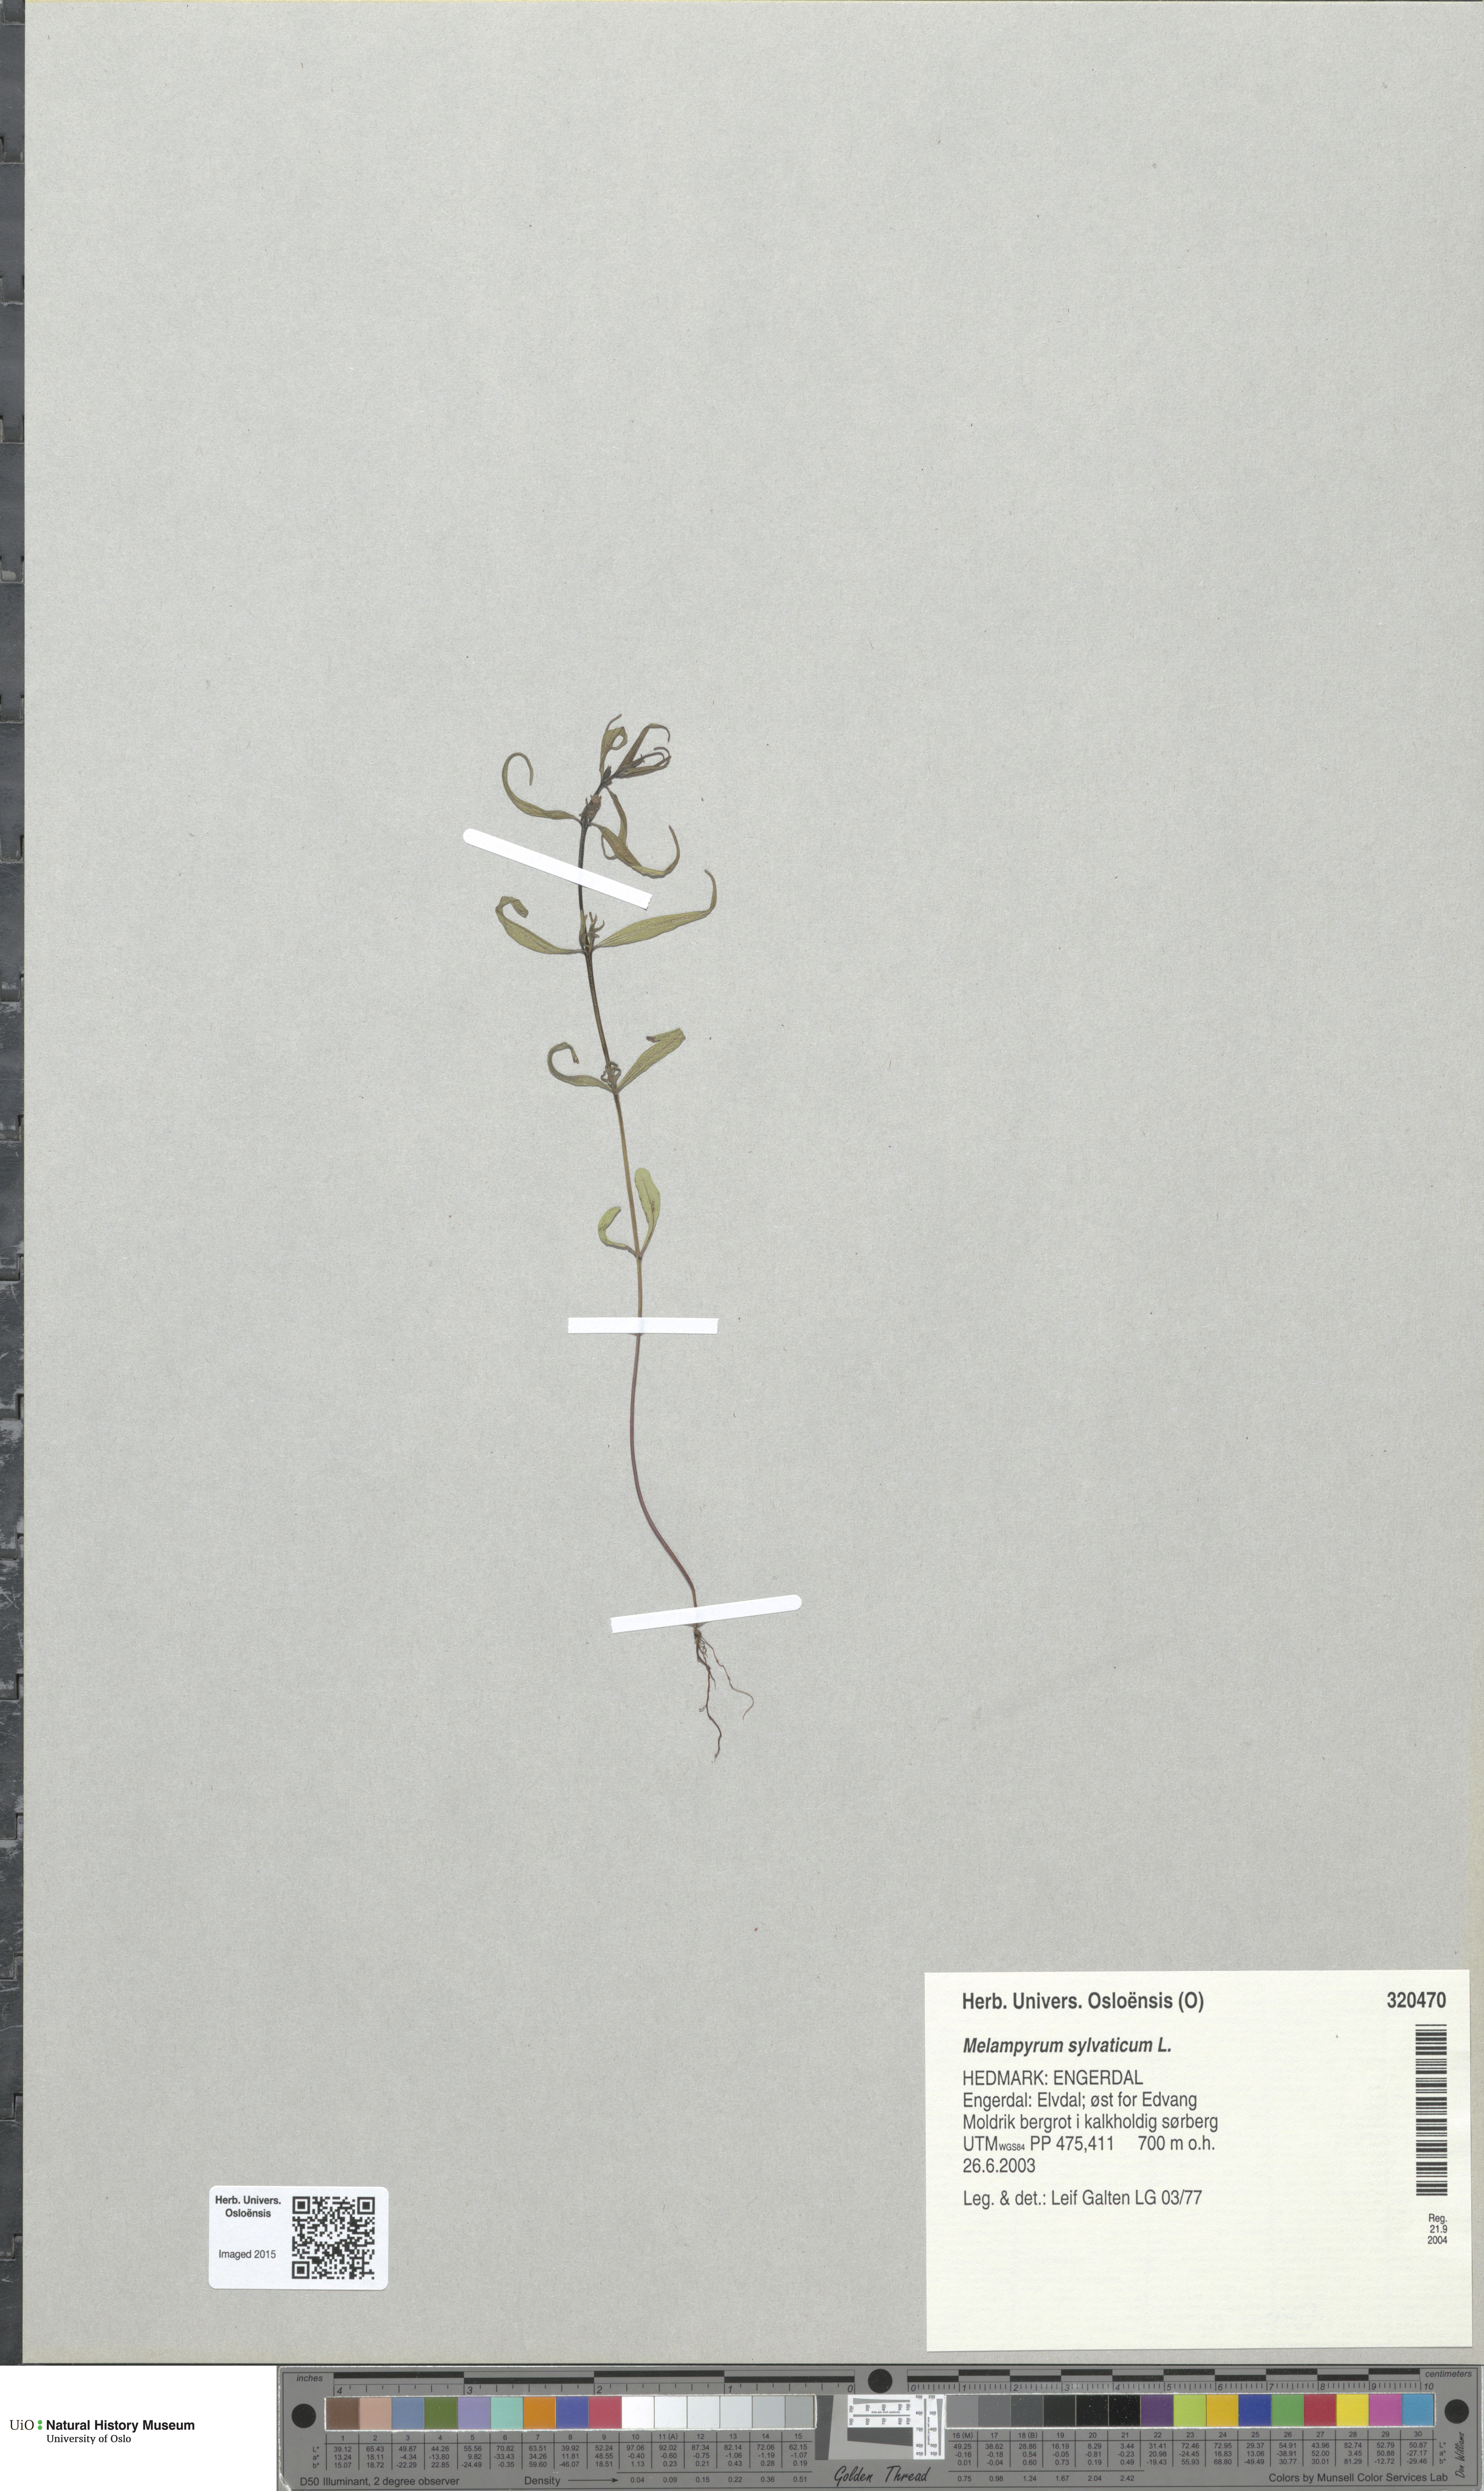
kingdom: Plantae
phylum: Tracheophyta
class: Magnoliopsida
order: Lamiales
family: Orobanchaceae
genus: Melampyrum
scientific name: Melampyrum sylvaticum
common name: Small cow-wheat
